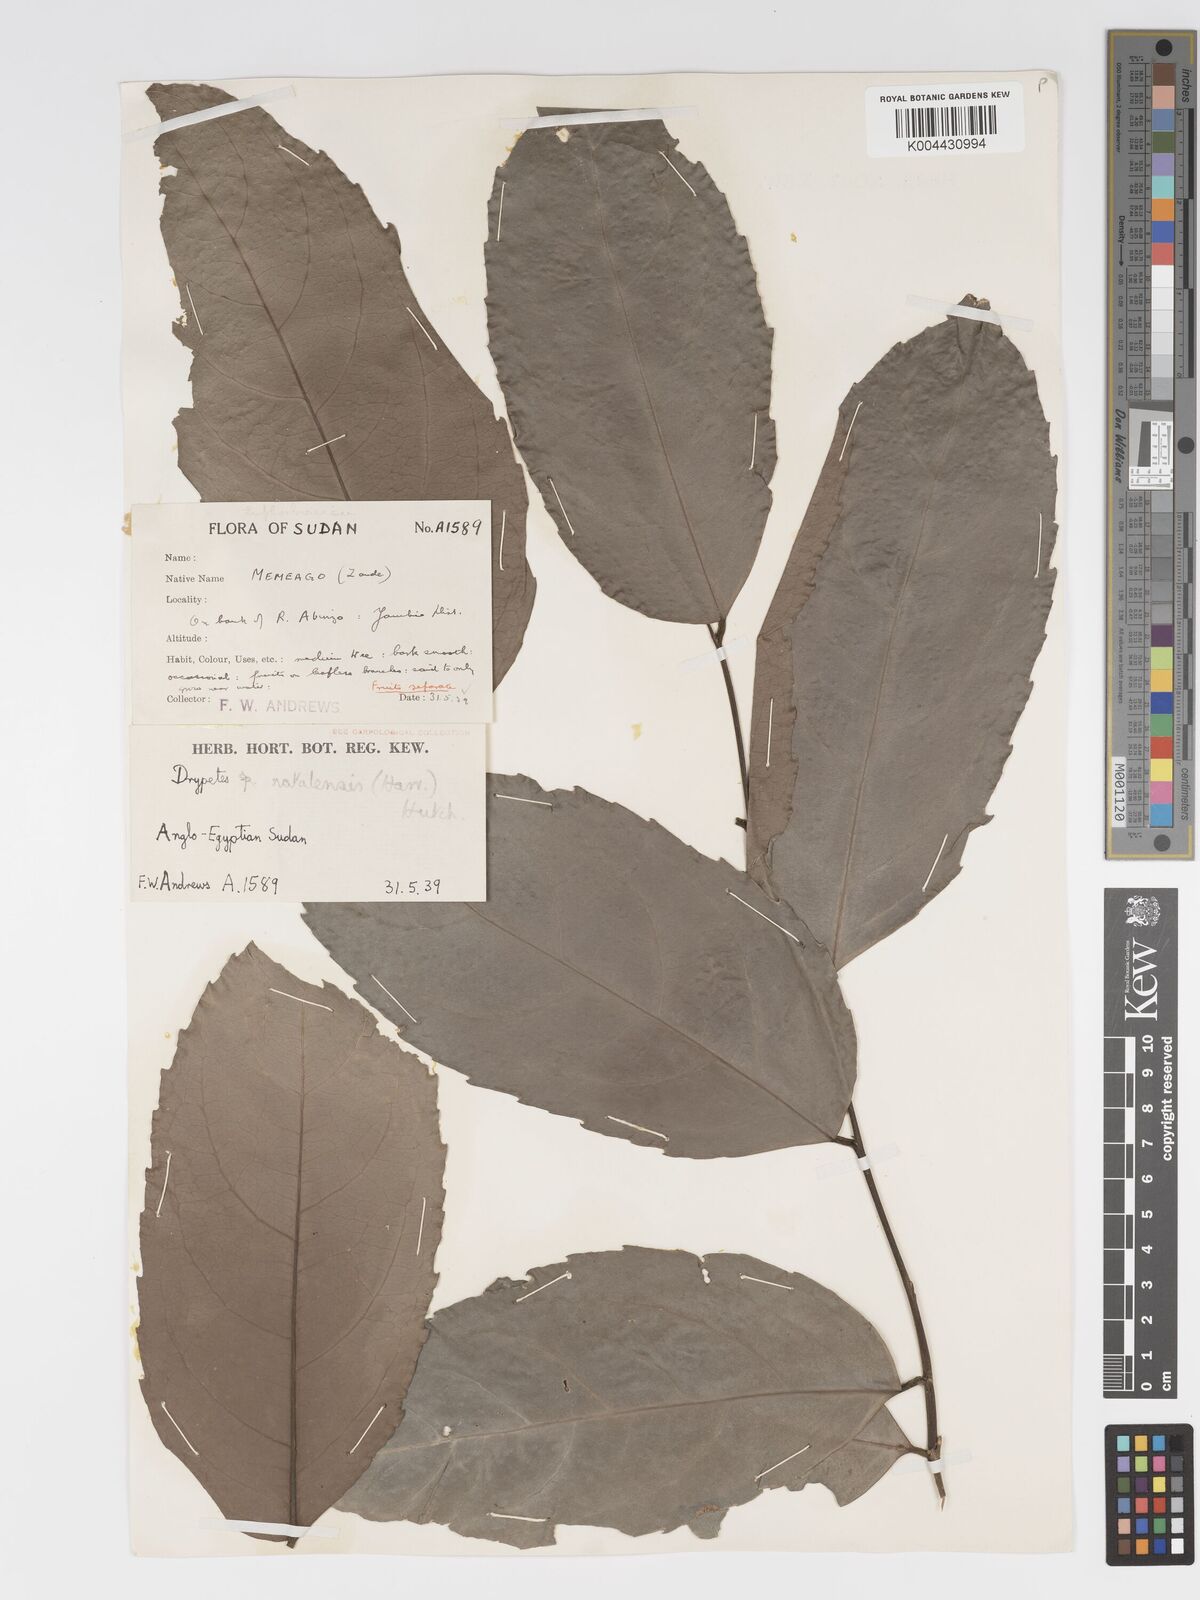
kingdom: Plantae
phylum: Tracheophyta
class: Magnoliopsida
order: Malpighiales
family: Putranjivaceae
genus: Drypetes
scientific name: Drypetes natalensis
